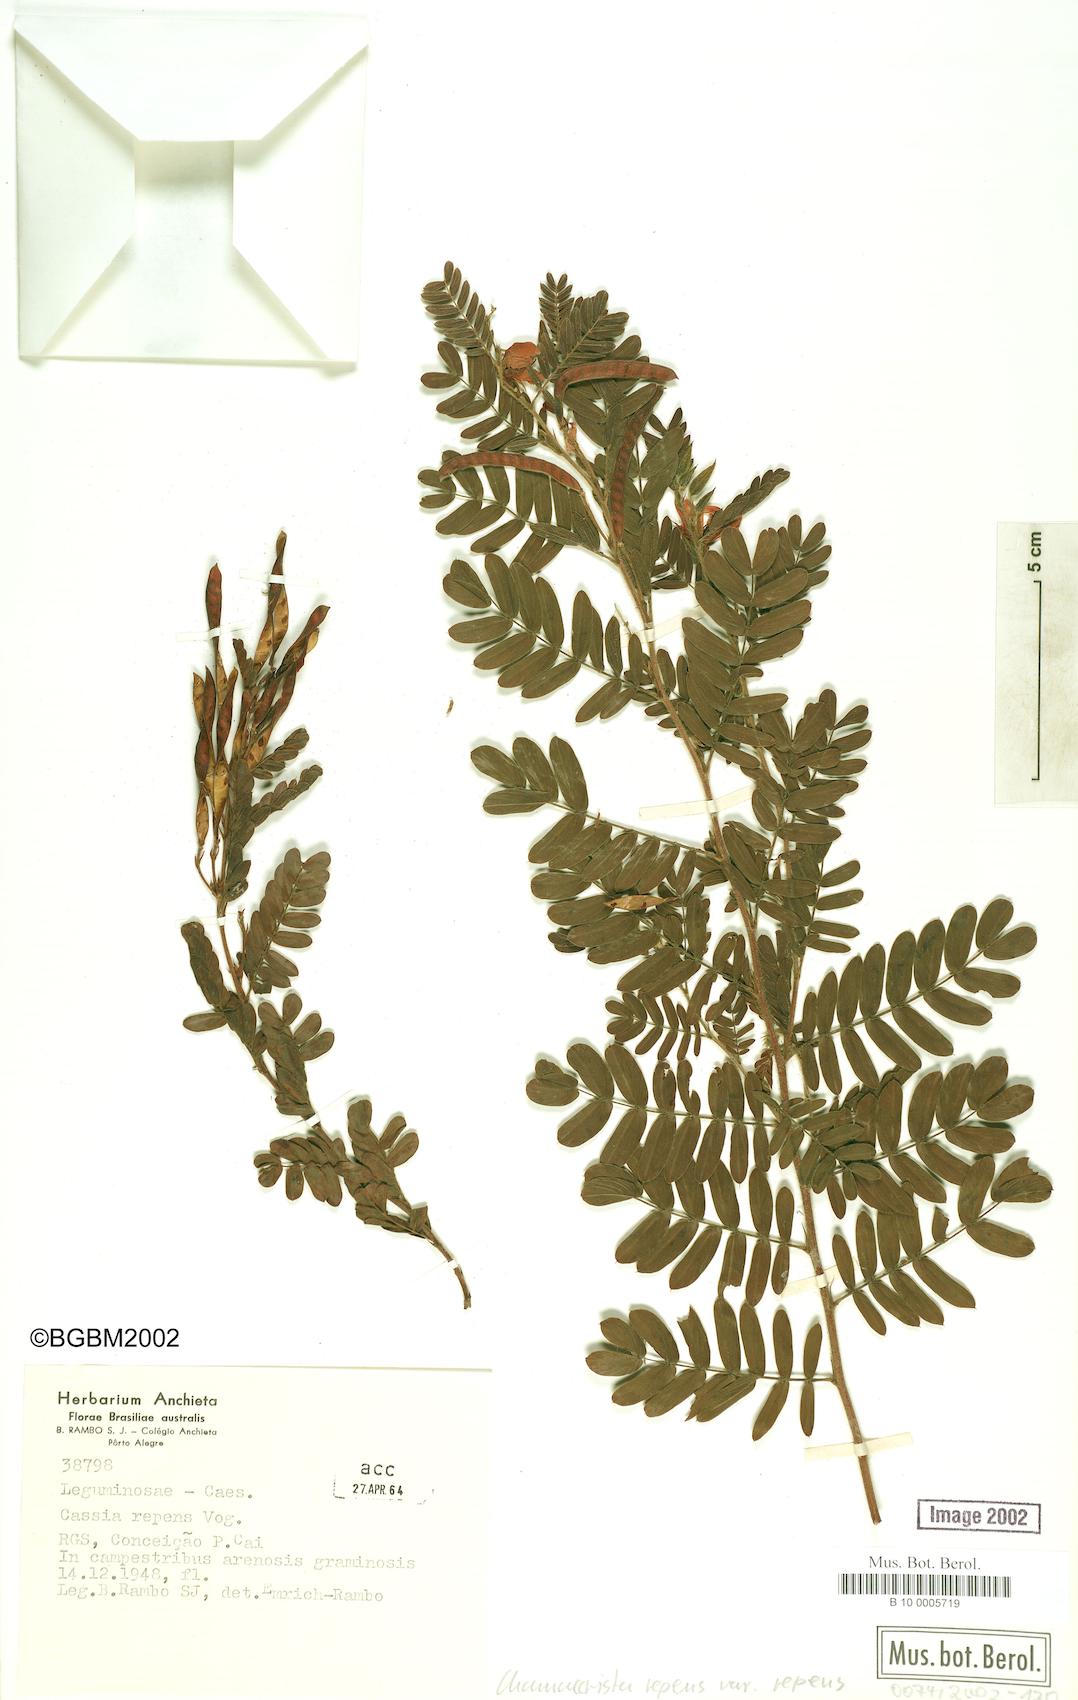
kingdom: Plantae
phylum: Tracheophyta
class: Magnoliopsida
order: Fabales
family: Fabaceae
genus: Chamaecrista
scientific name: Chamaecrista repens
